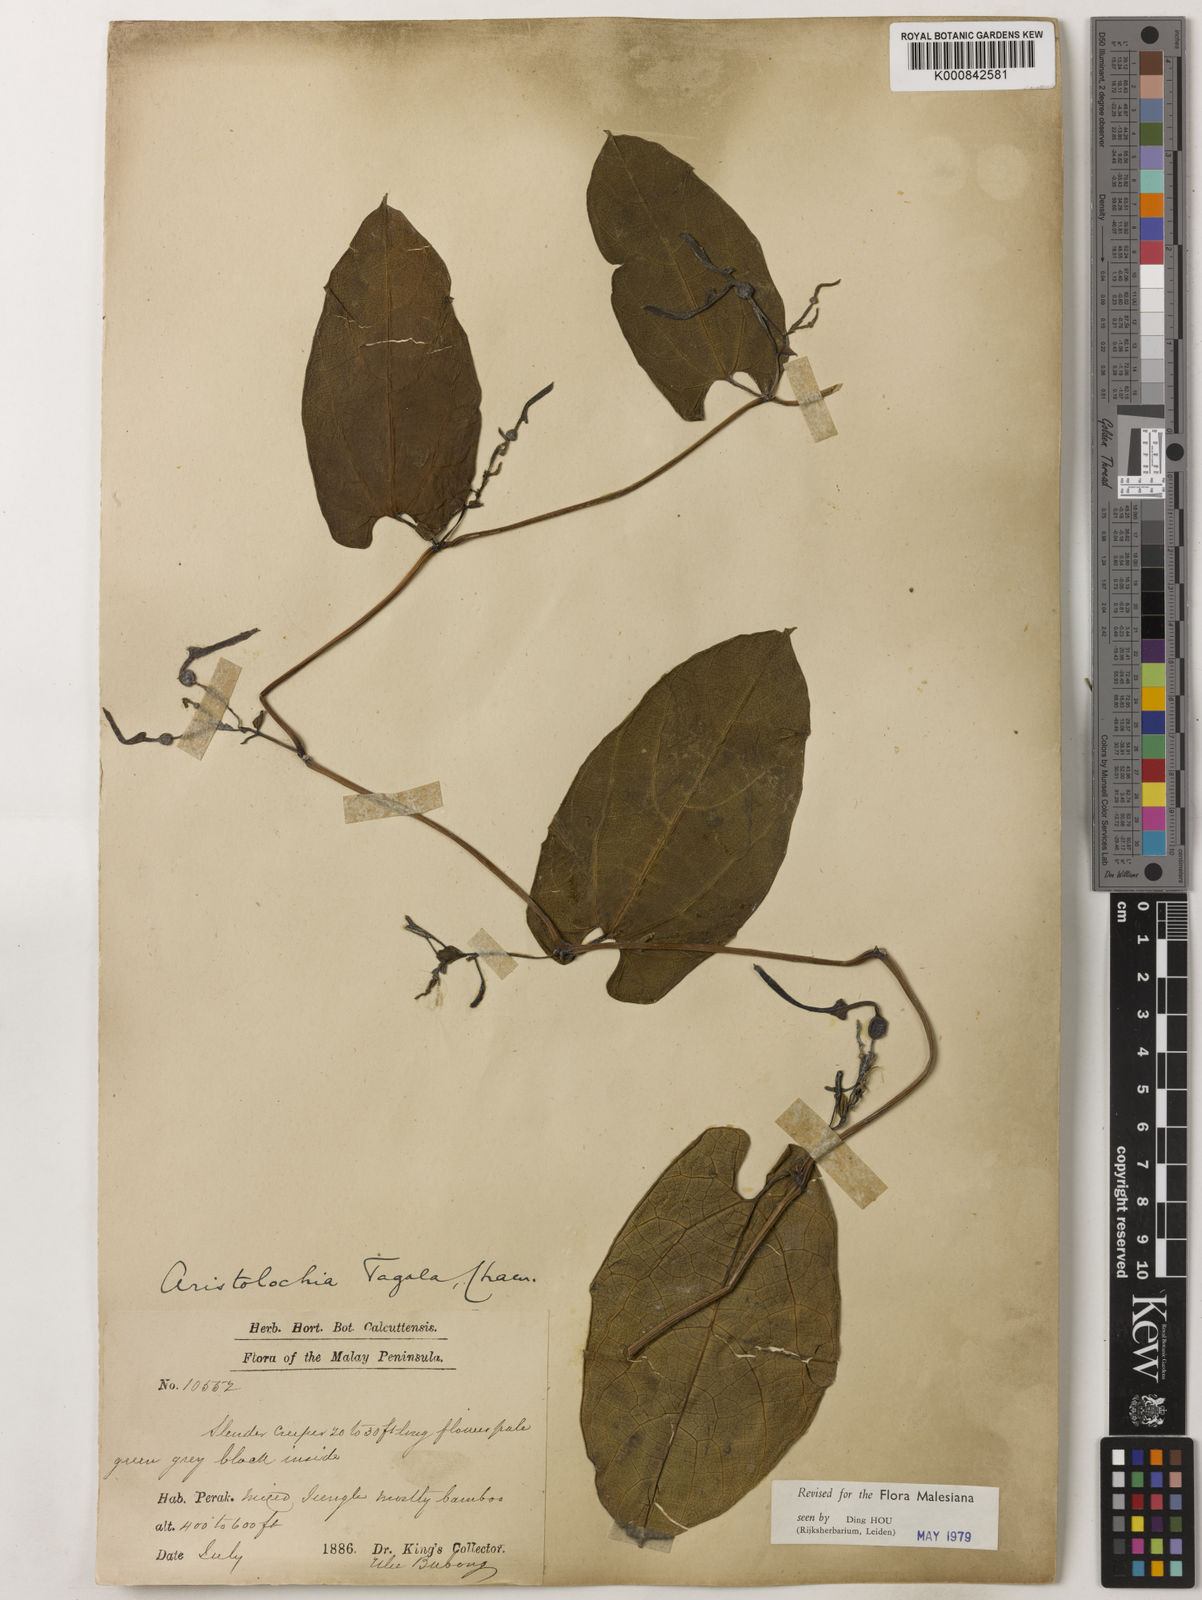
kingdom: Plantae
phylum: Tracheophyta
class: Magnoliopsida
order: Piperales
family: Aristolochiaceae
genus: Aristolochia
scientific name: Aristolochia acuminata
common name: Indian birthwort
